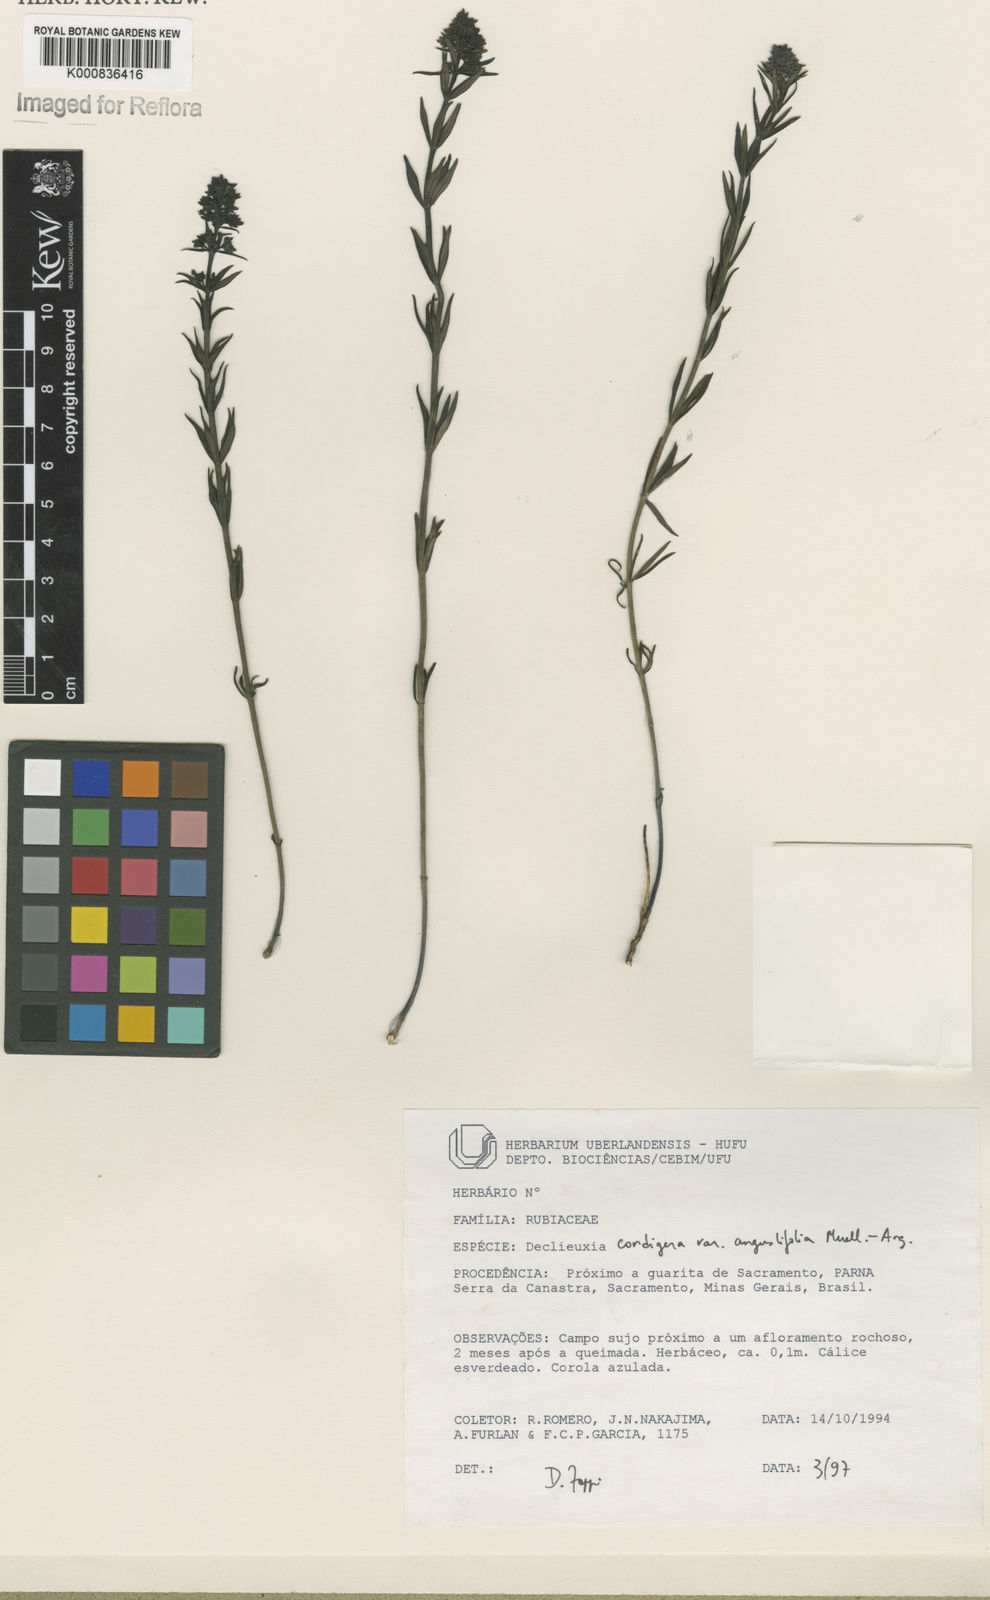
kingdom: Plantae
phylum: Tracheophyta
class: Magnoliopsida
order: Gentianales
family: Rubiaceae
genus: Declieuxia
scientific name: Declieuxia
